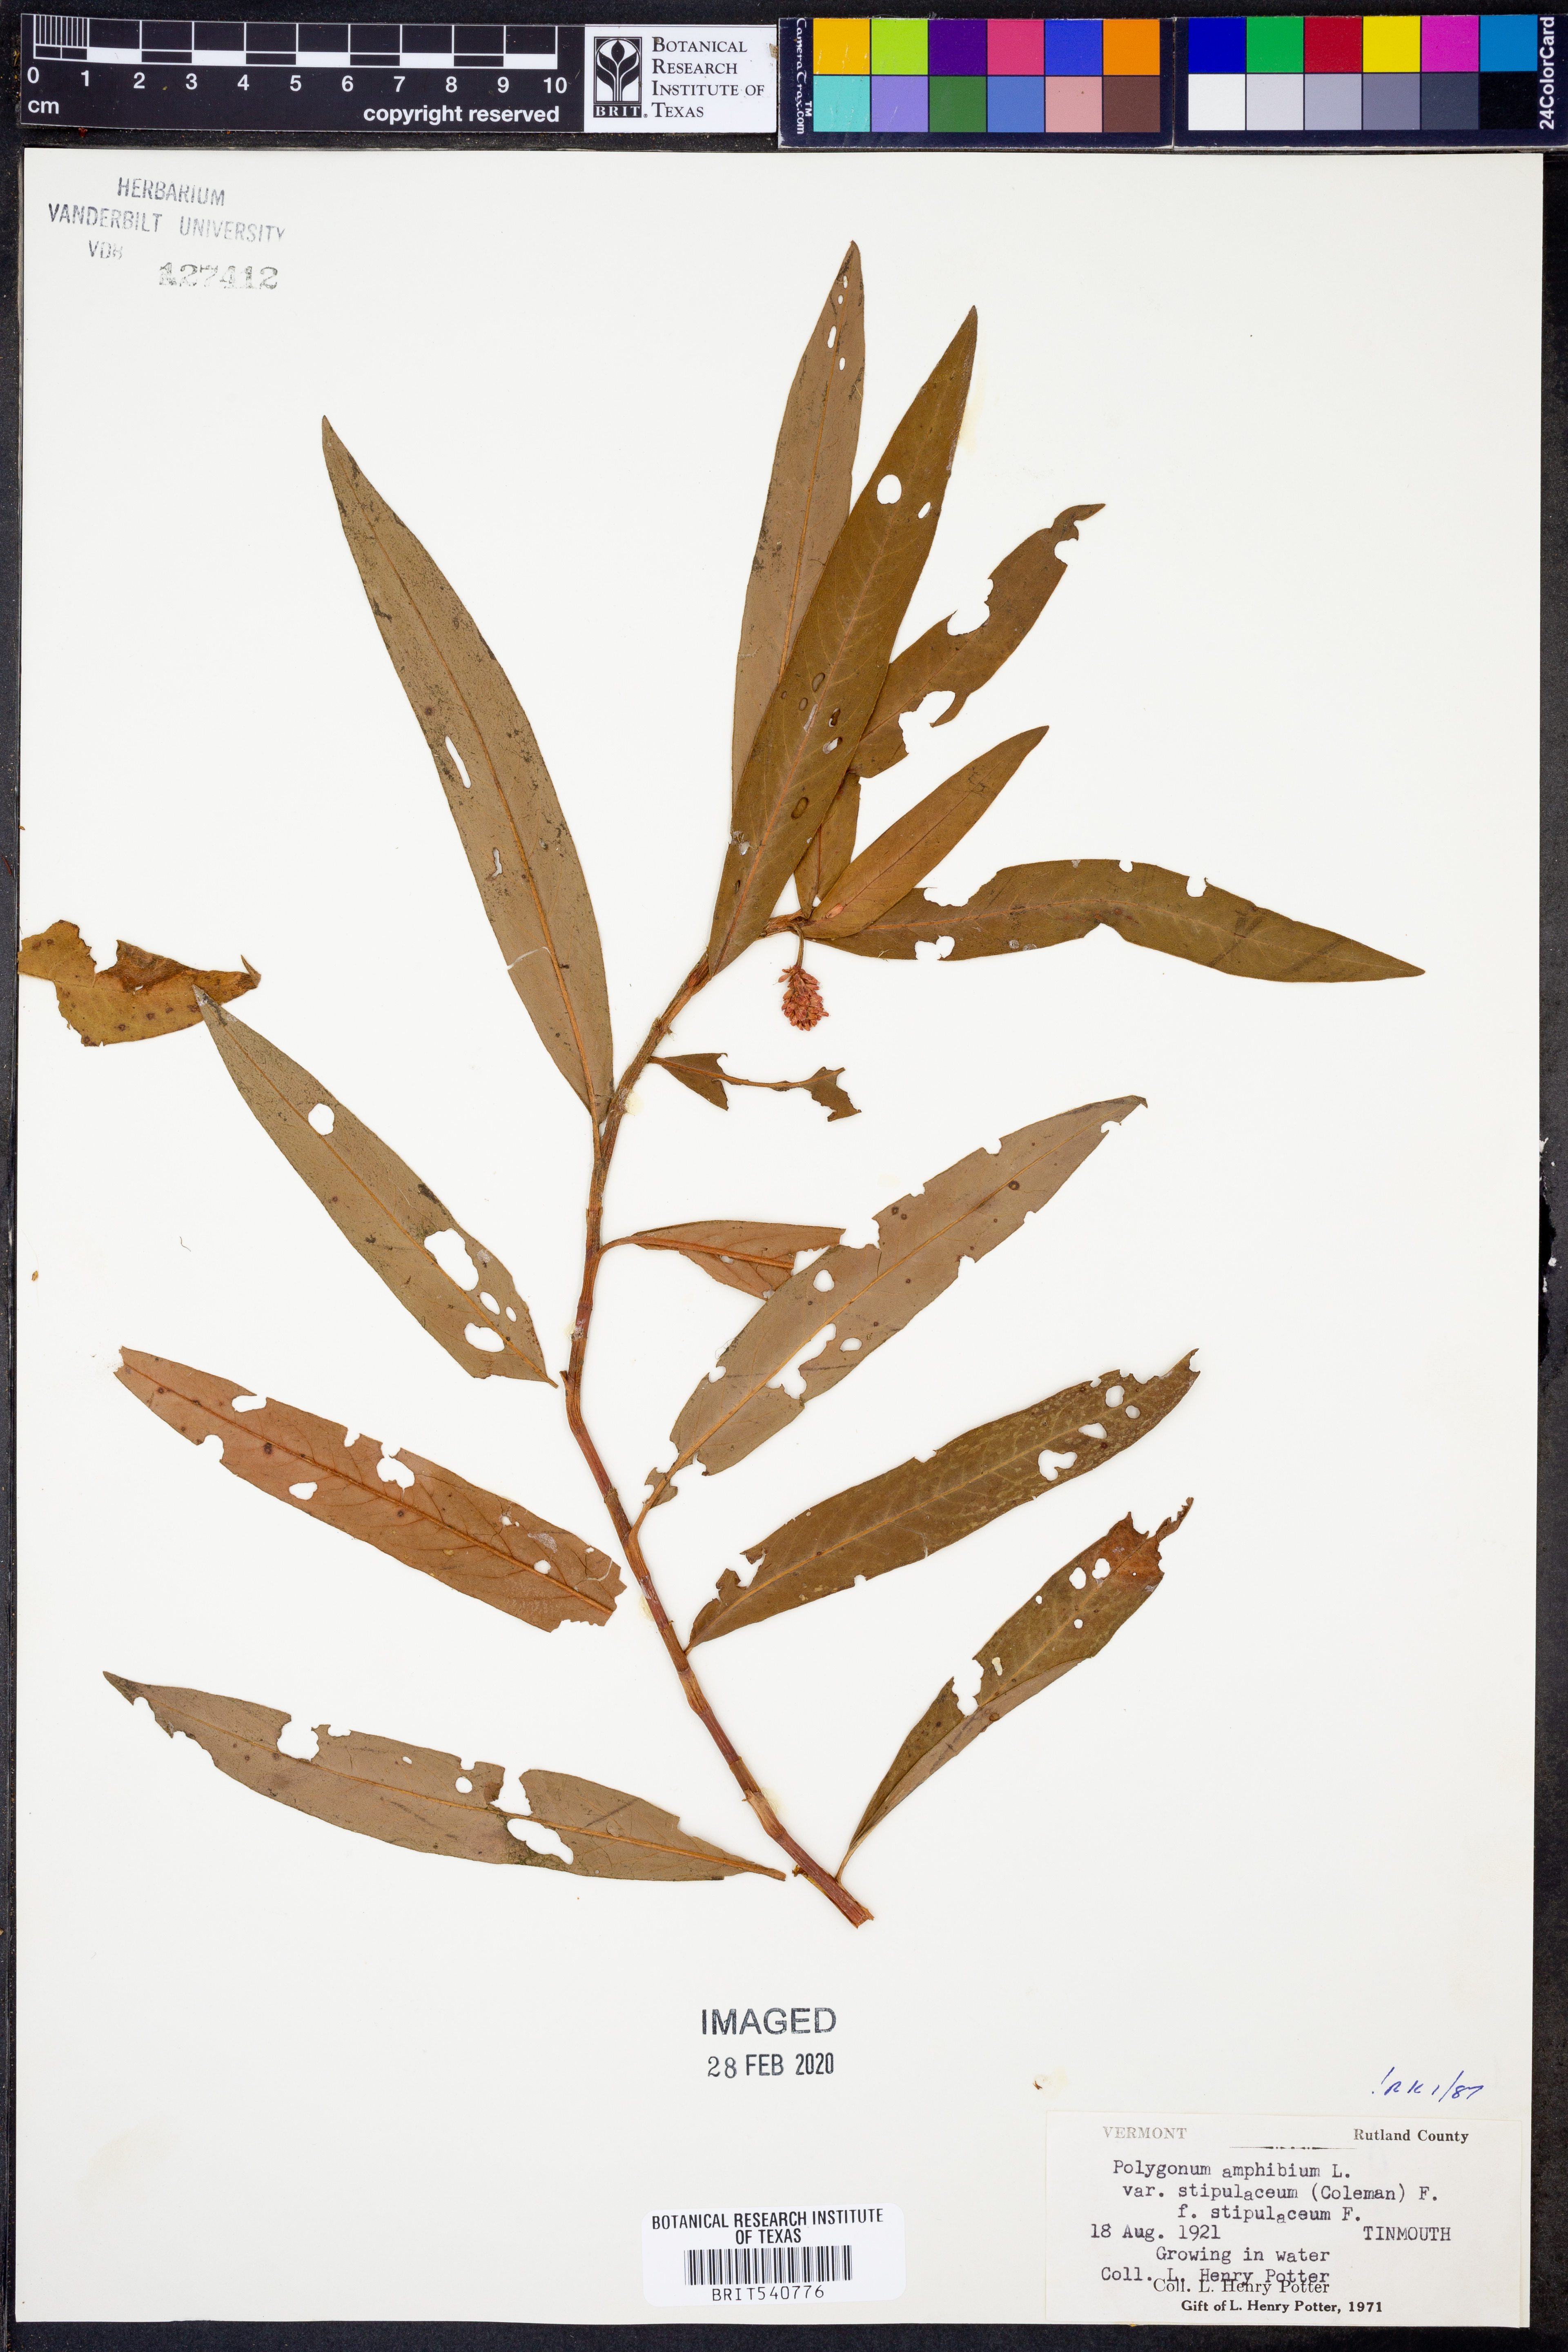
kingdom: Plantae
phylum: Tracheophyta
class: Magnoliopsida
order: Caryophyllales
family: Polygonaceae
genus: Persicaria
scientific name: Persicaria amphibia
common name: Amphibious bistort
